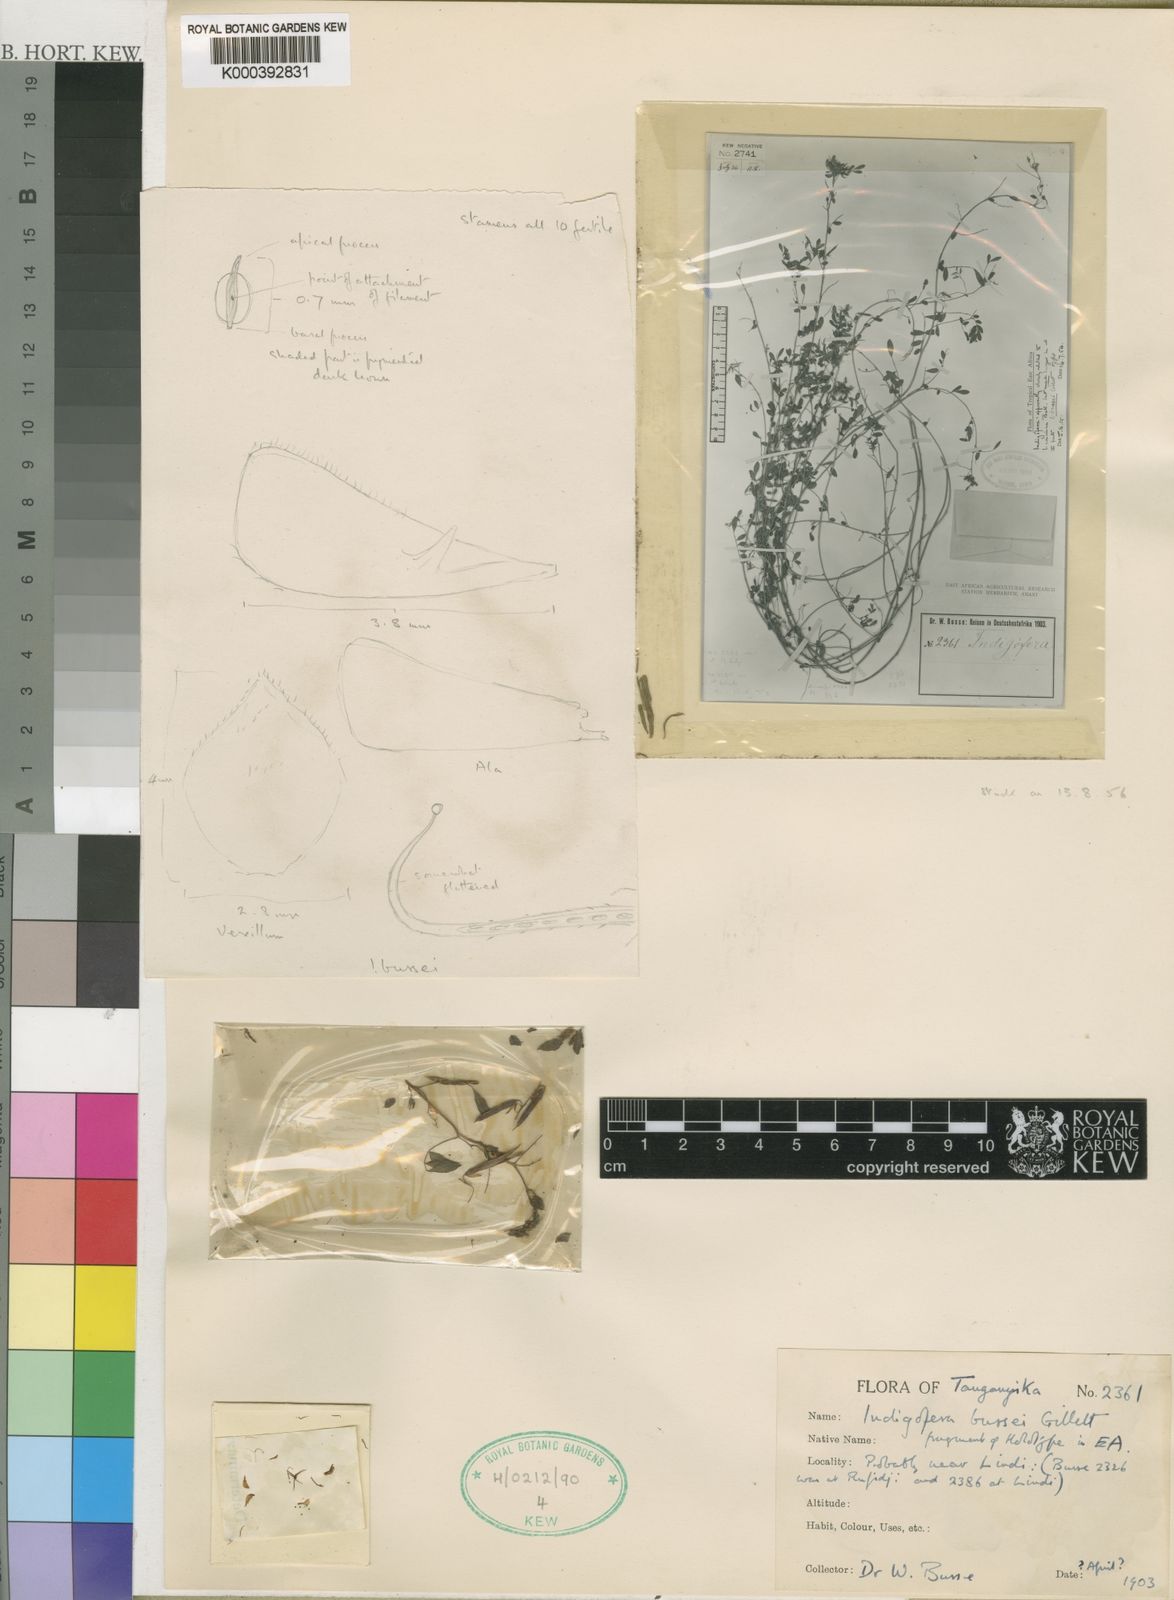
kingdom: Plantae
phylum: Tracheophyta
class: Magnoliopsida
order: Fabales
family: Fabaceae
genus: Indigofera
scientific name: Indigofera bussei
